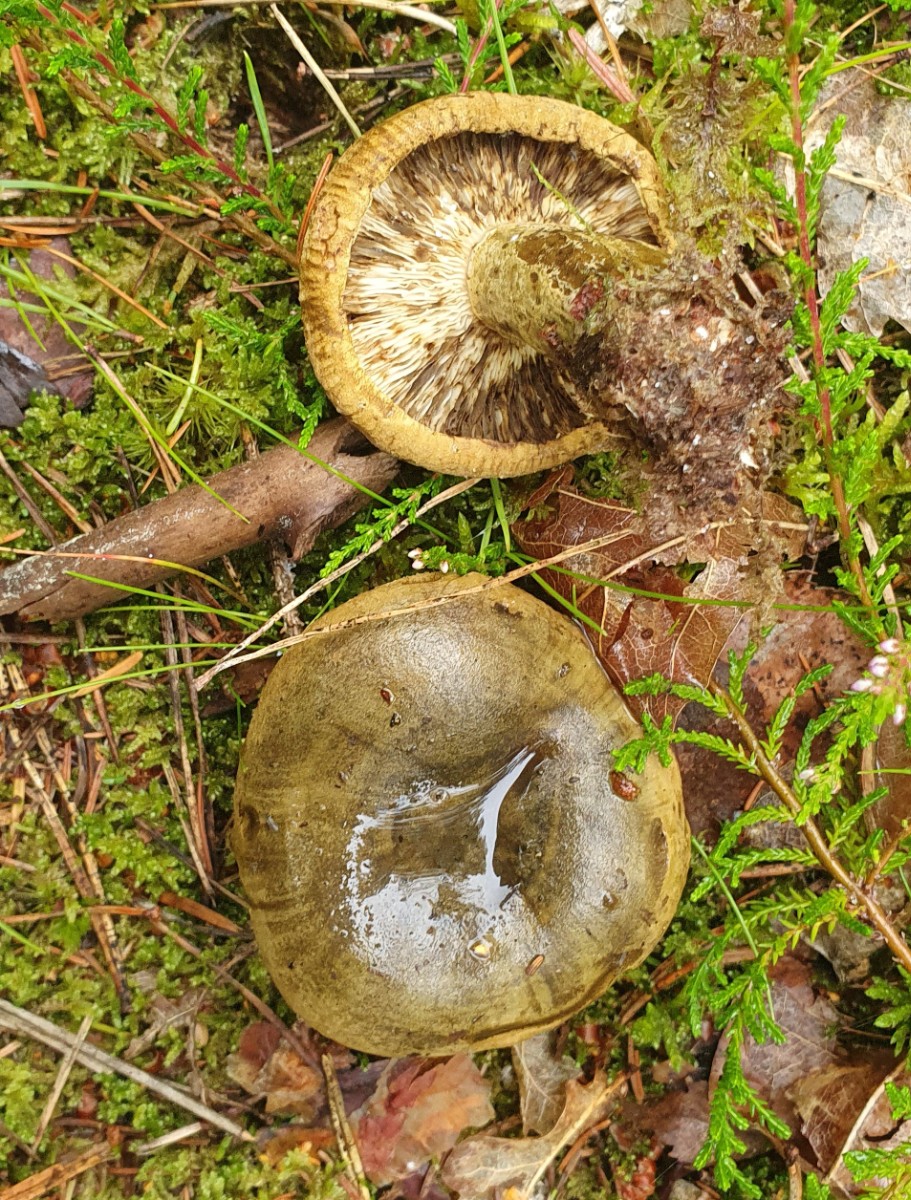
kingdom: Fungi
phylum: Basidiomycota
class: Agaricomycetes
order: Russulales
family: Russulaceae
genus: Lactarius
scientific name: Lactarius necator
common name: manddraber-mælkehat
